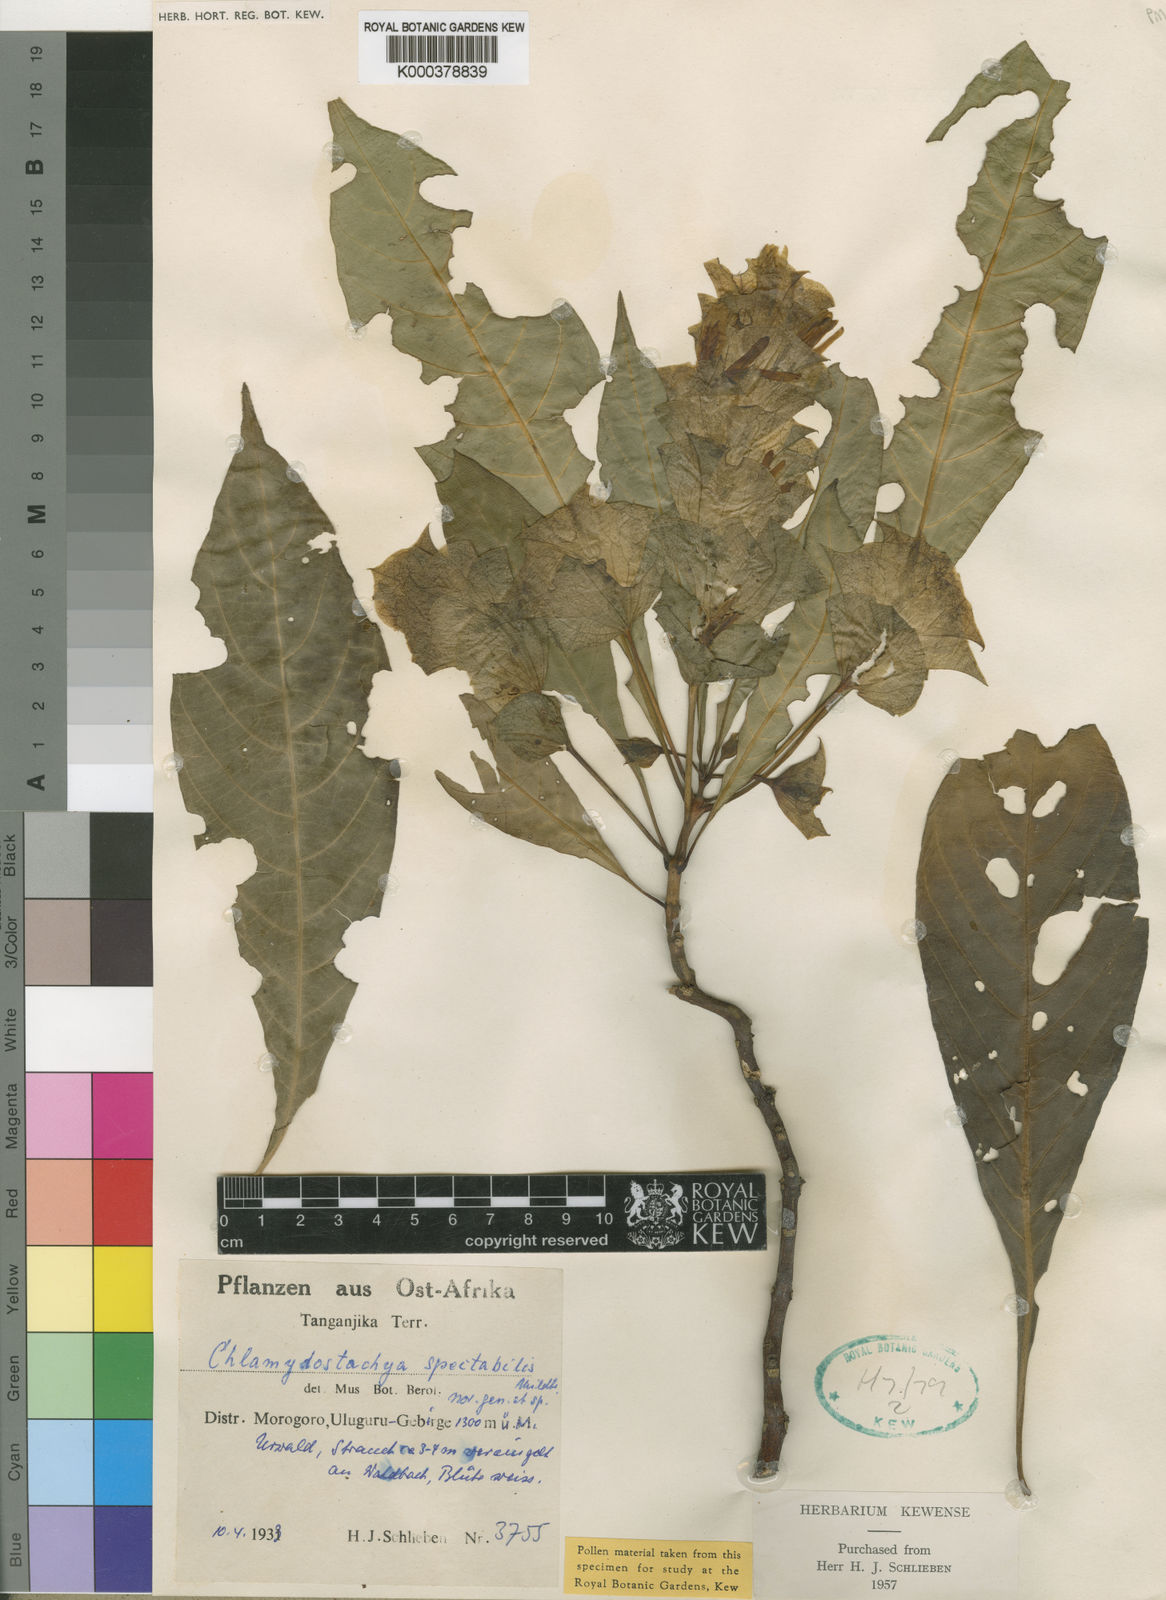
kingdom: Plantae
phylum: Tracheophyta
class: Magnoliopsida
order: Lamiales
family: Acanthaceae
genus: Anisotes
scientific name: Anisotes spectabilis
